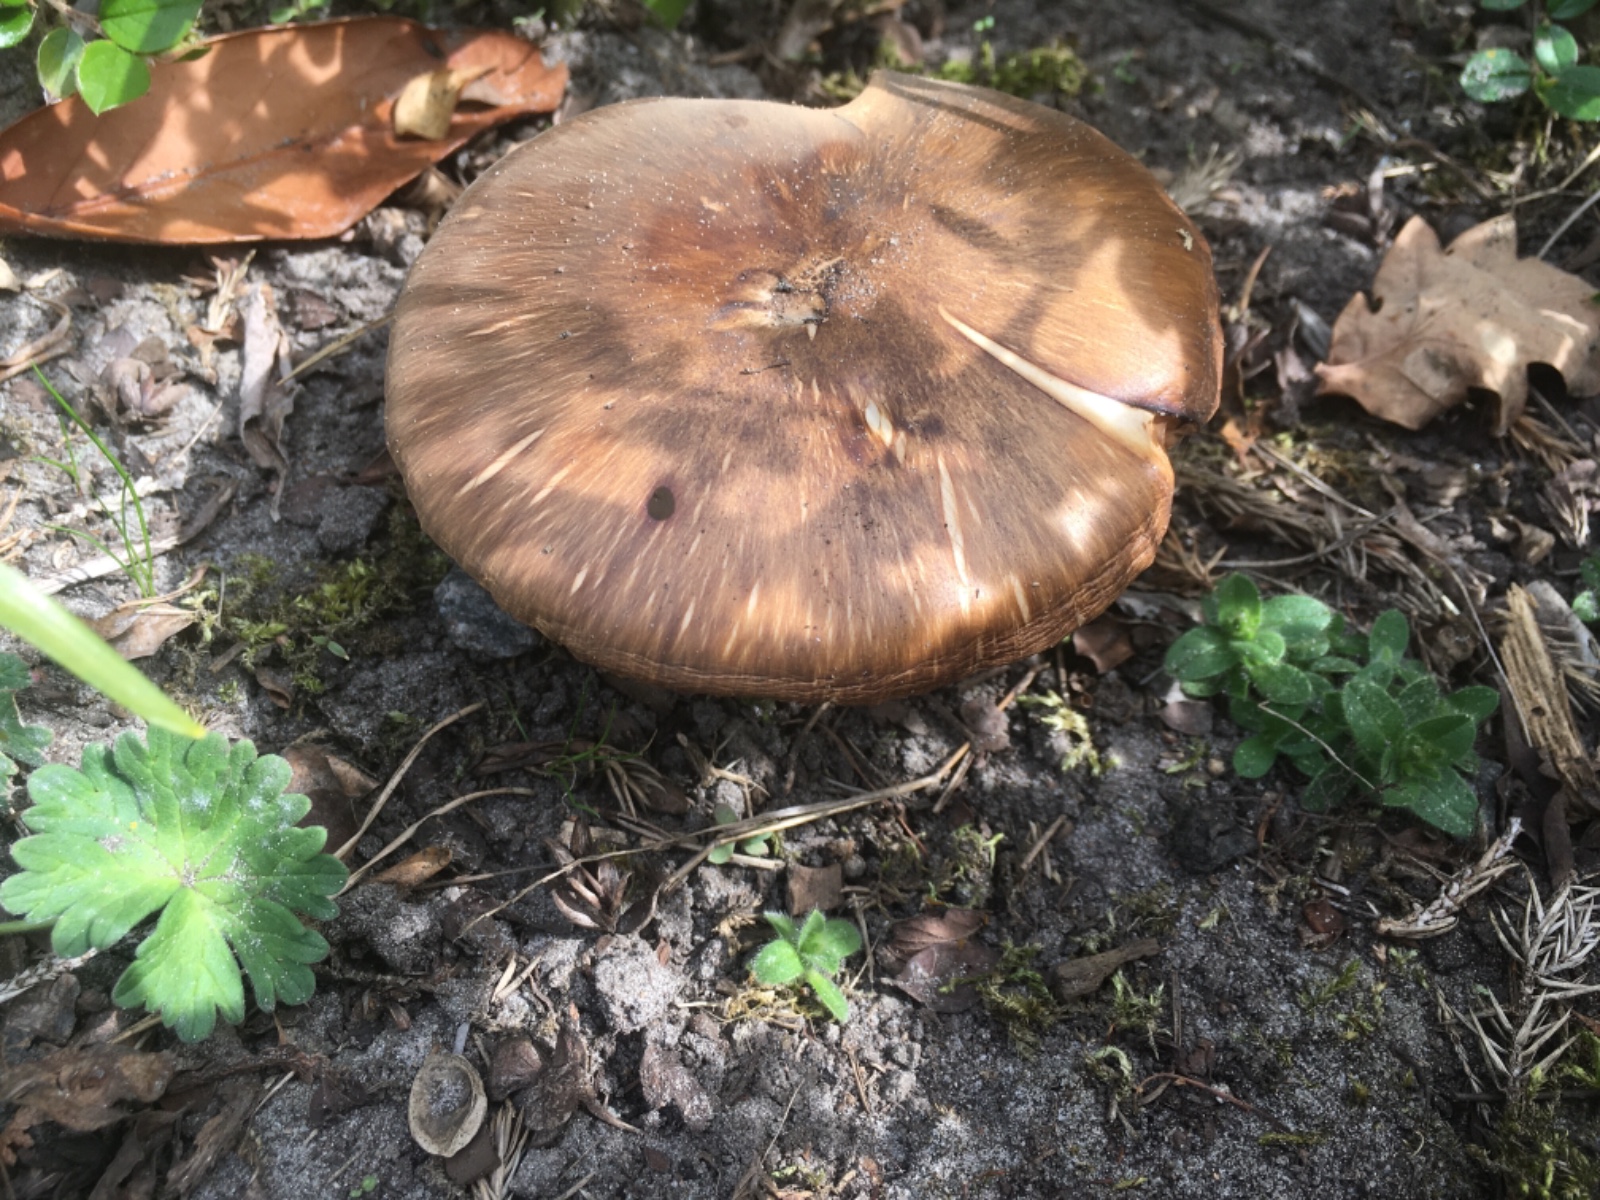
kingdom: Fungi
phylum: Basidiomycota
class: Agaricomycetes
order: Agaricales
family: Pluteaceae
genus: Pluteus
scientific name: Pluteus cervinus
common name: sodfarvet skærmhat
